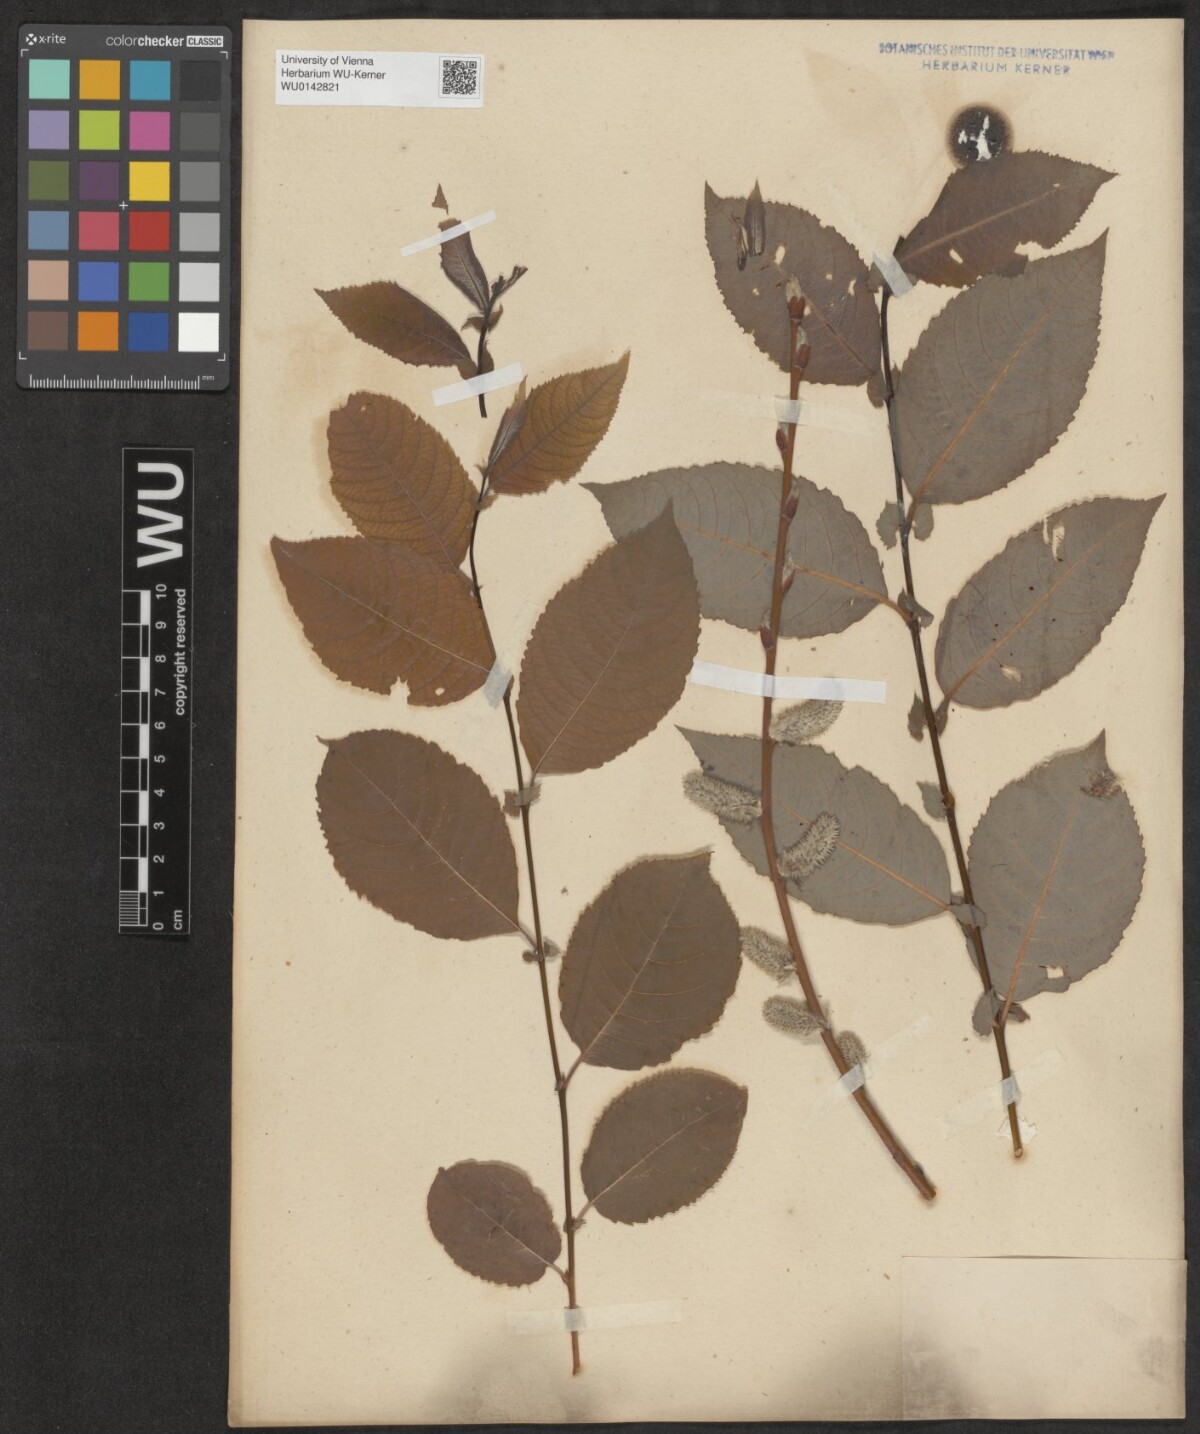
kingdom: Plantae
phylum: Tracheophyta
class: Magnoliopsida
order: Malpighiales
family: Salicaceae
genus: Salix
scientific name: Salix macrophylla
